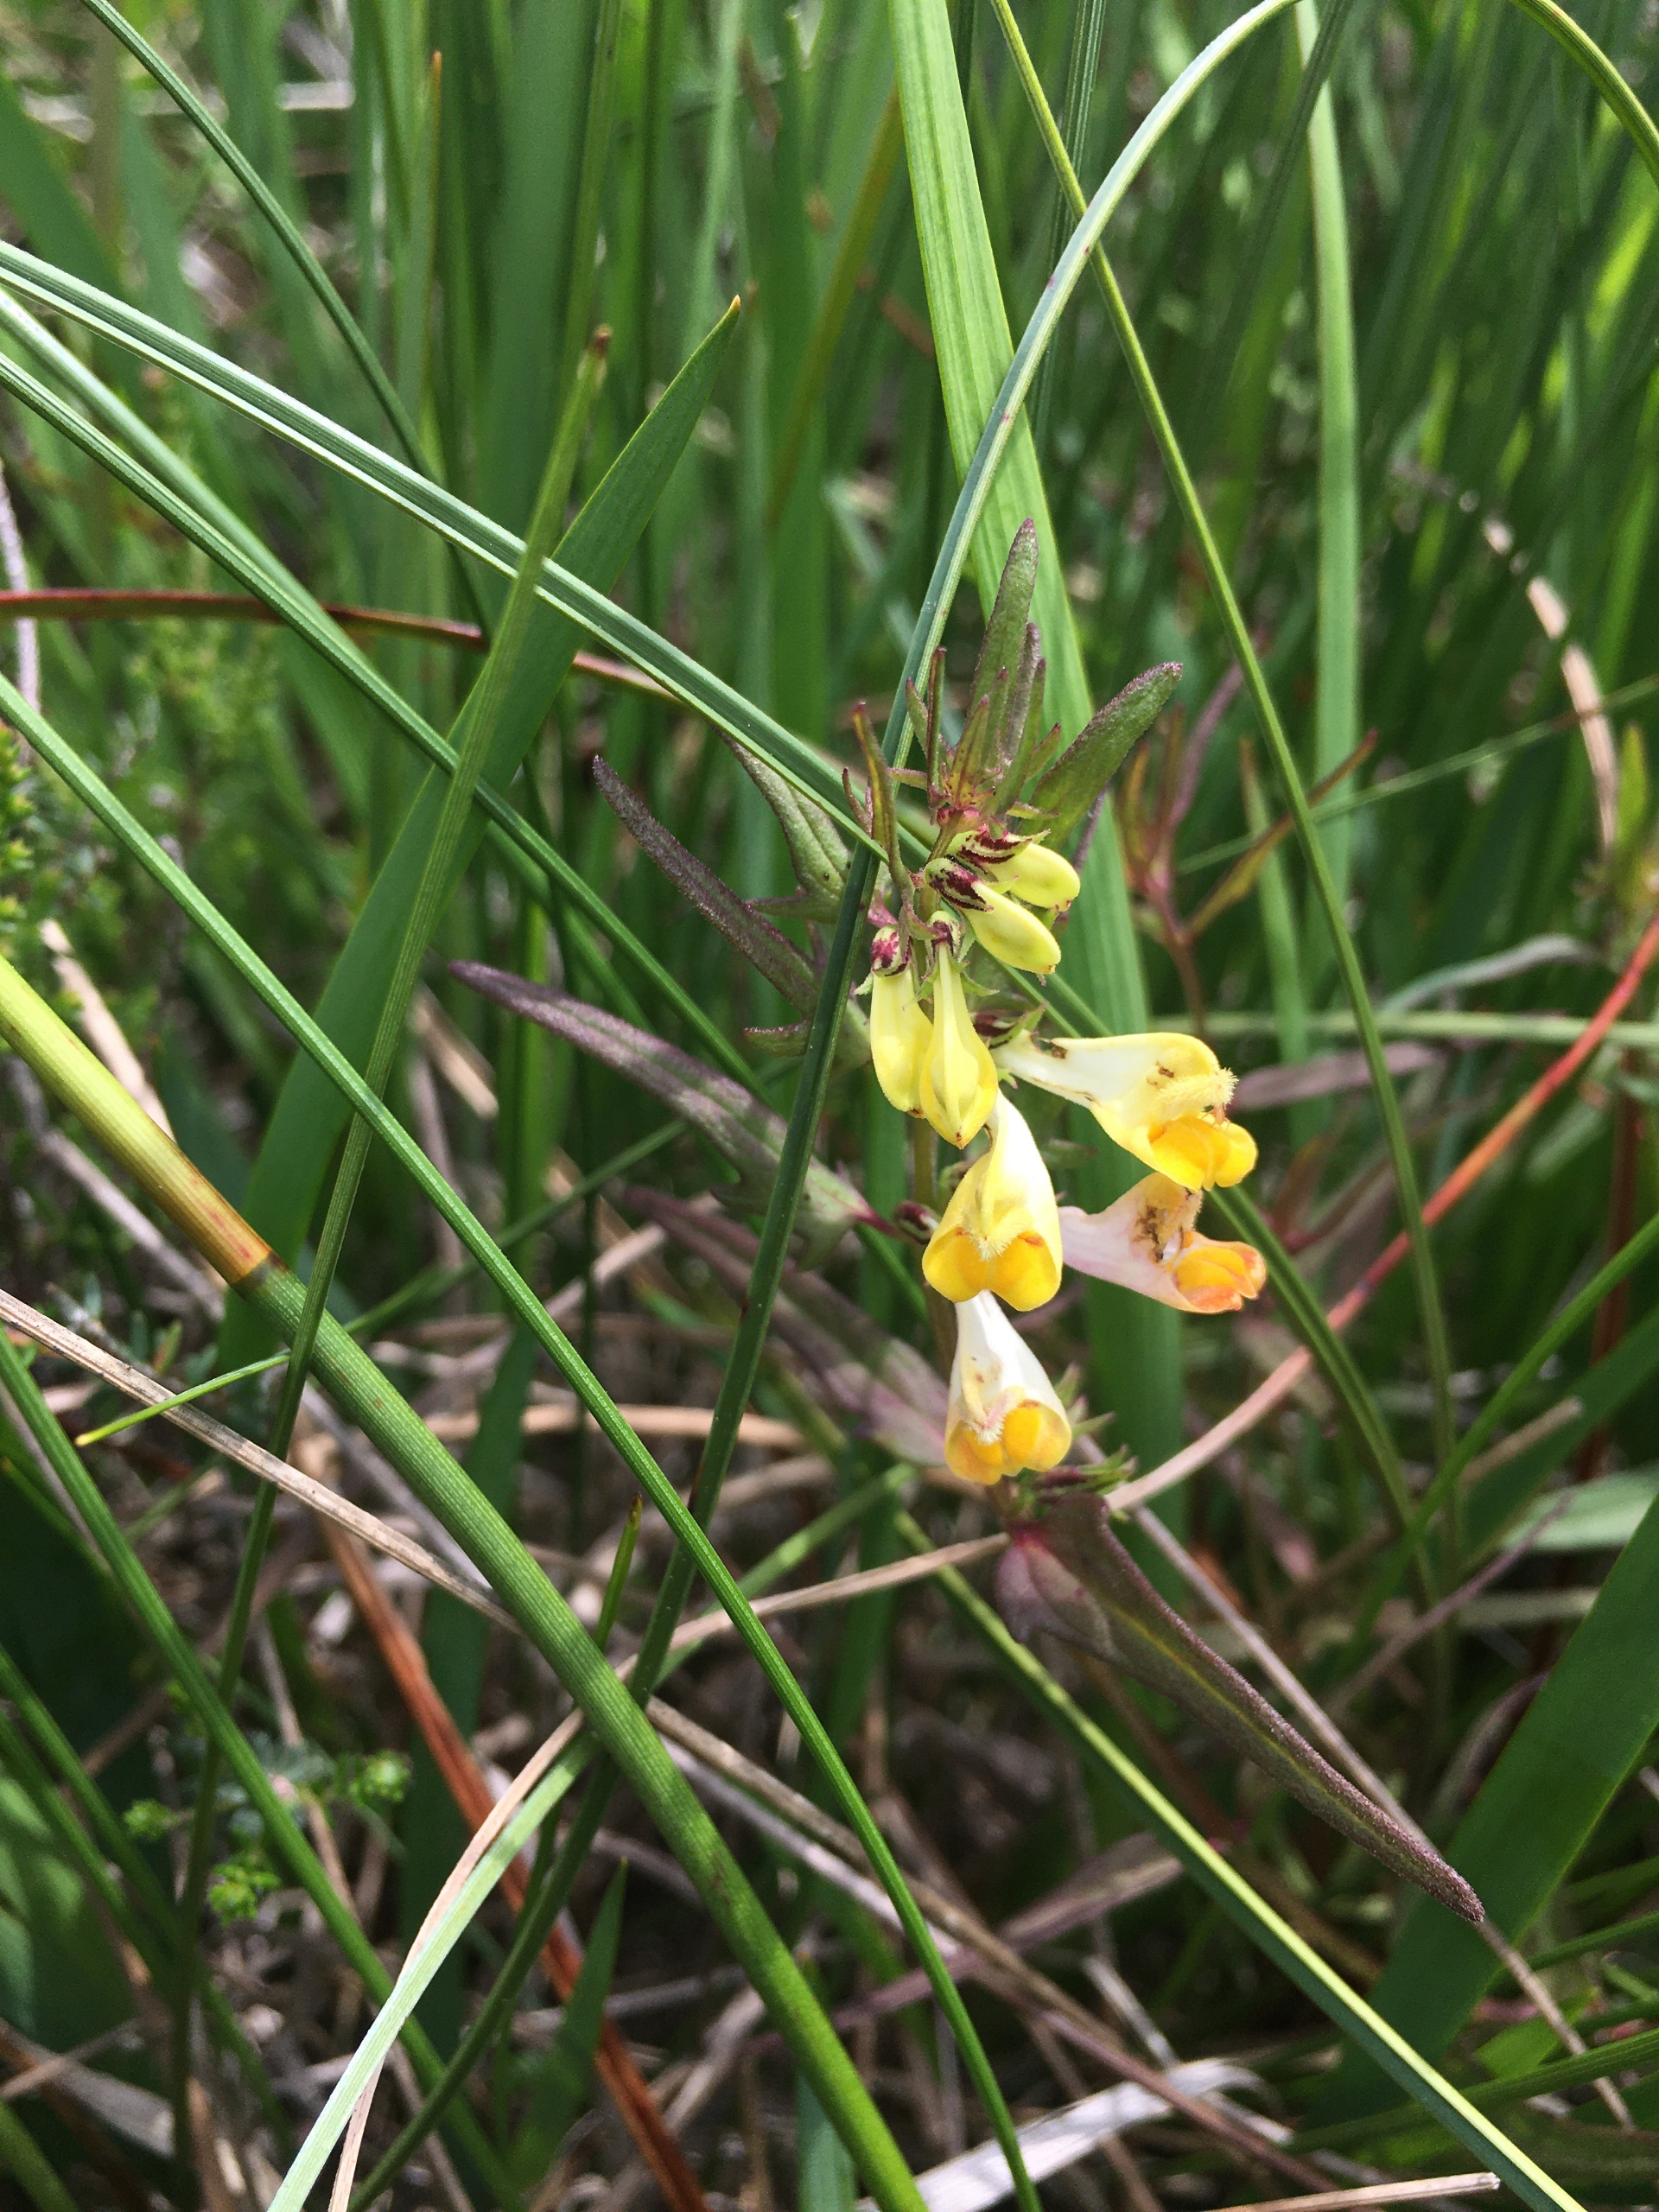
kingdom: Plantae
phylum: Tracheophyta
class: Magnoliopsida
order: Lamiales
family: Orobanchaceae
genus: Melampyrum
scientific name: Melampyrum pratense
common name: Almindelig kohvede
